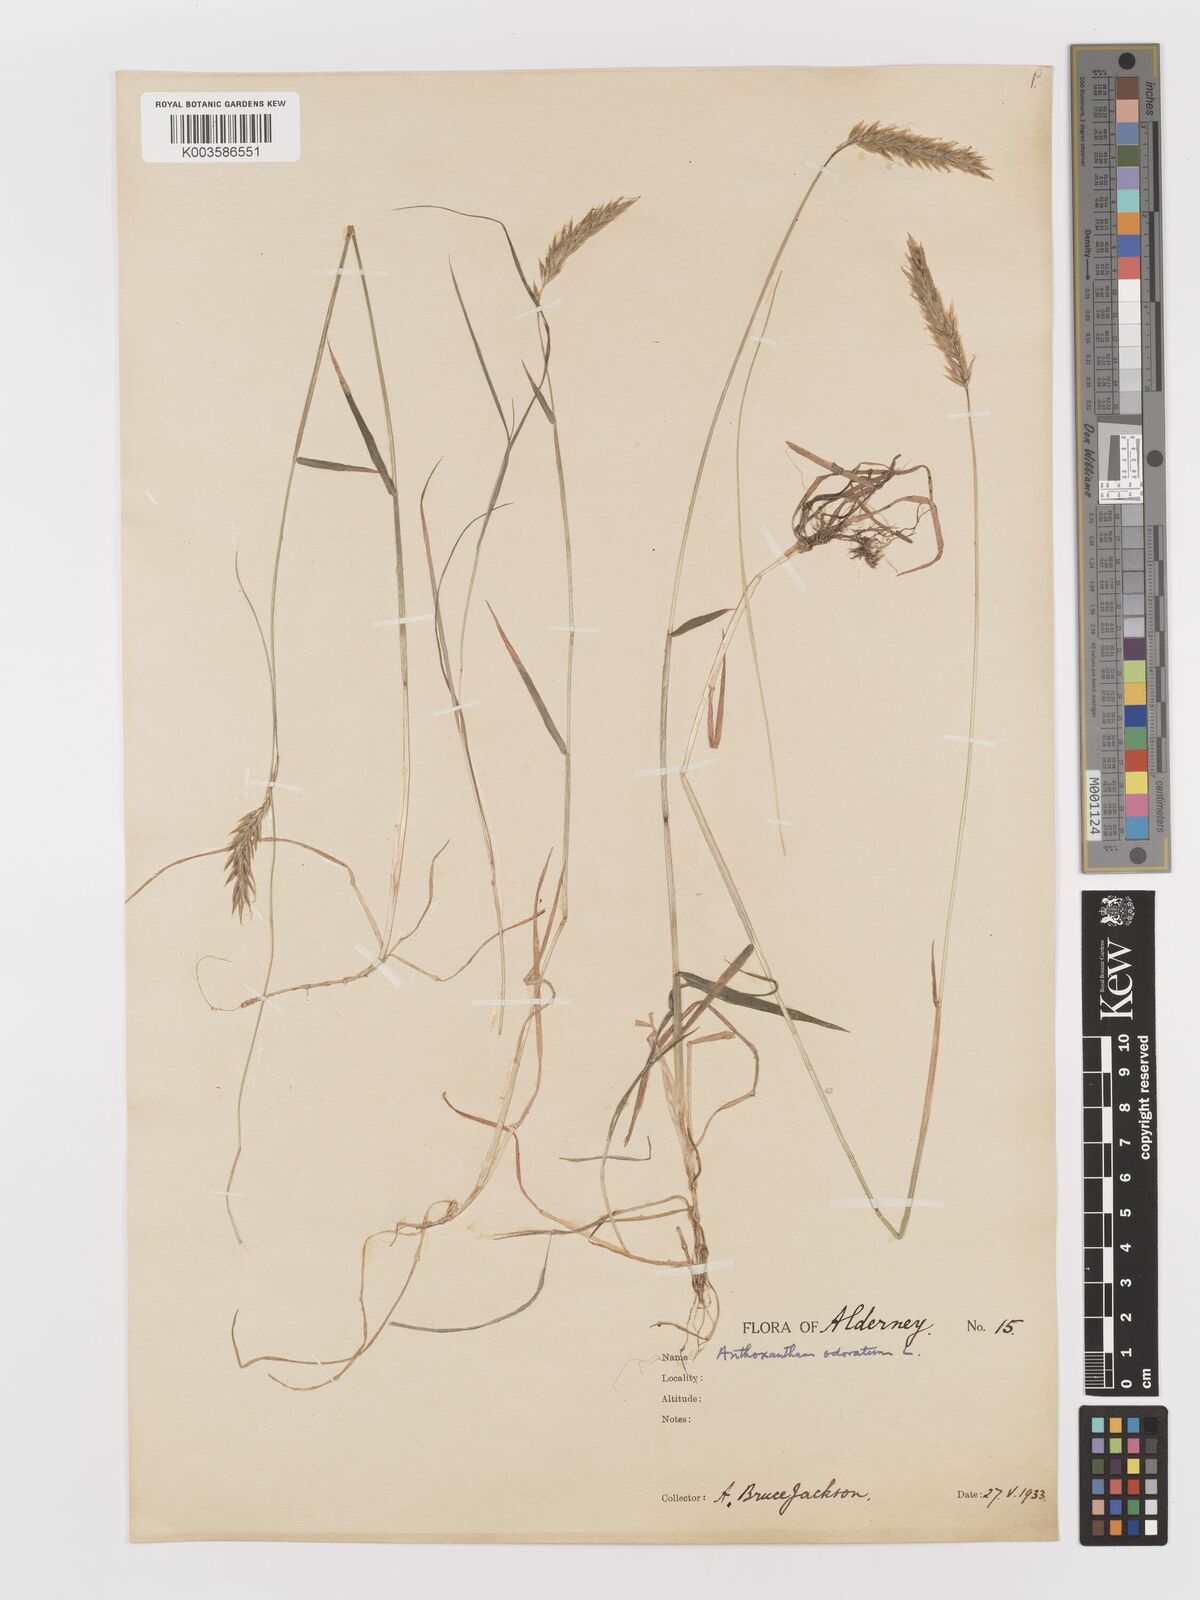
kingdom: Plantae
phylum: Tracheophyta
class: Liliopsida
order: Poales
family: Poaceae
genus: Anthoxanthum
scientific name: Anthoxanthum odoratum
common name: Sweet vernalgrass
